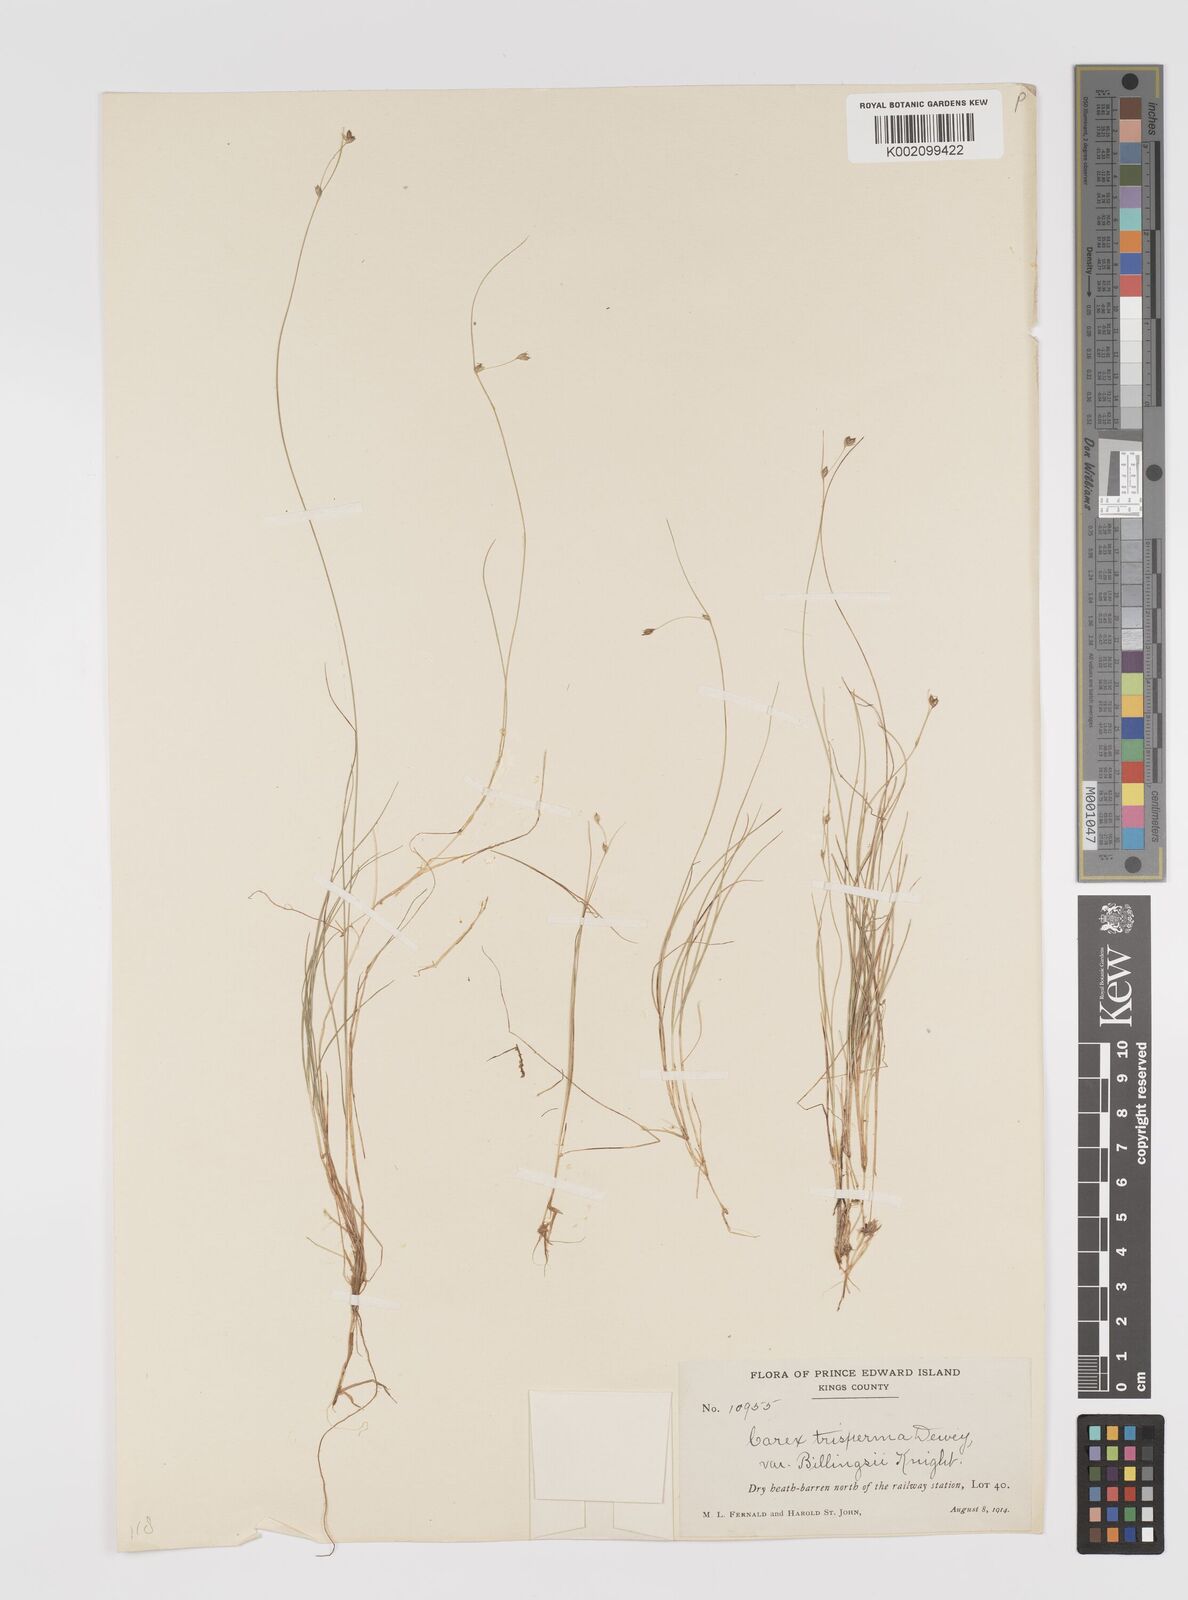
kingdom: Plantae
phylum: Tracheophyta
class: Liliopsida
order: Poales
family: Cyperaceae
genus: Carex
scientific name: Carex trisperma
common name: Three-seeded sedge
